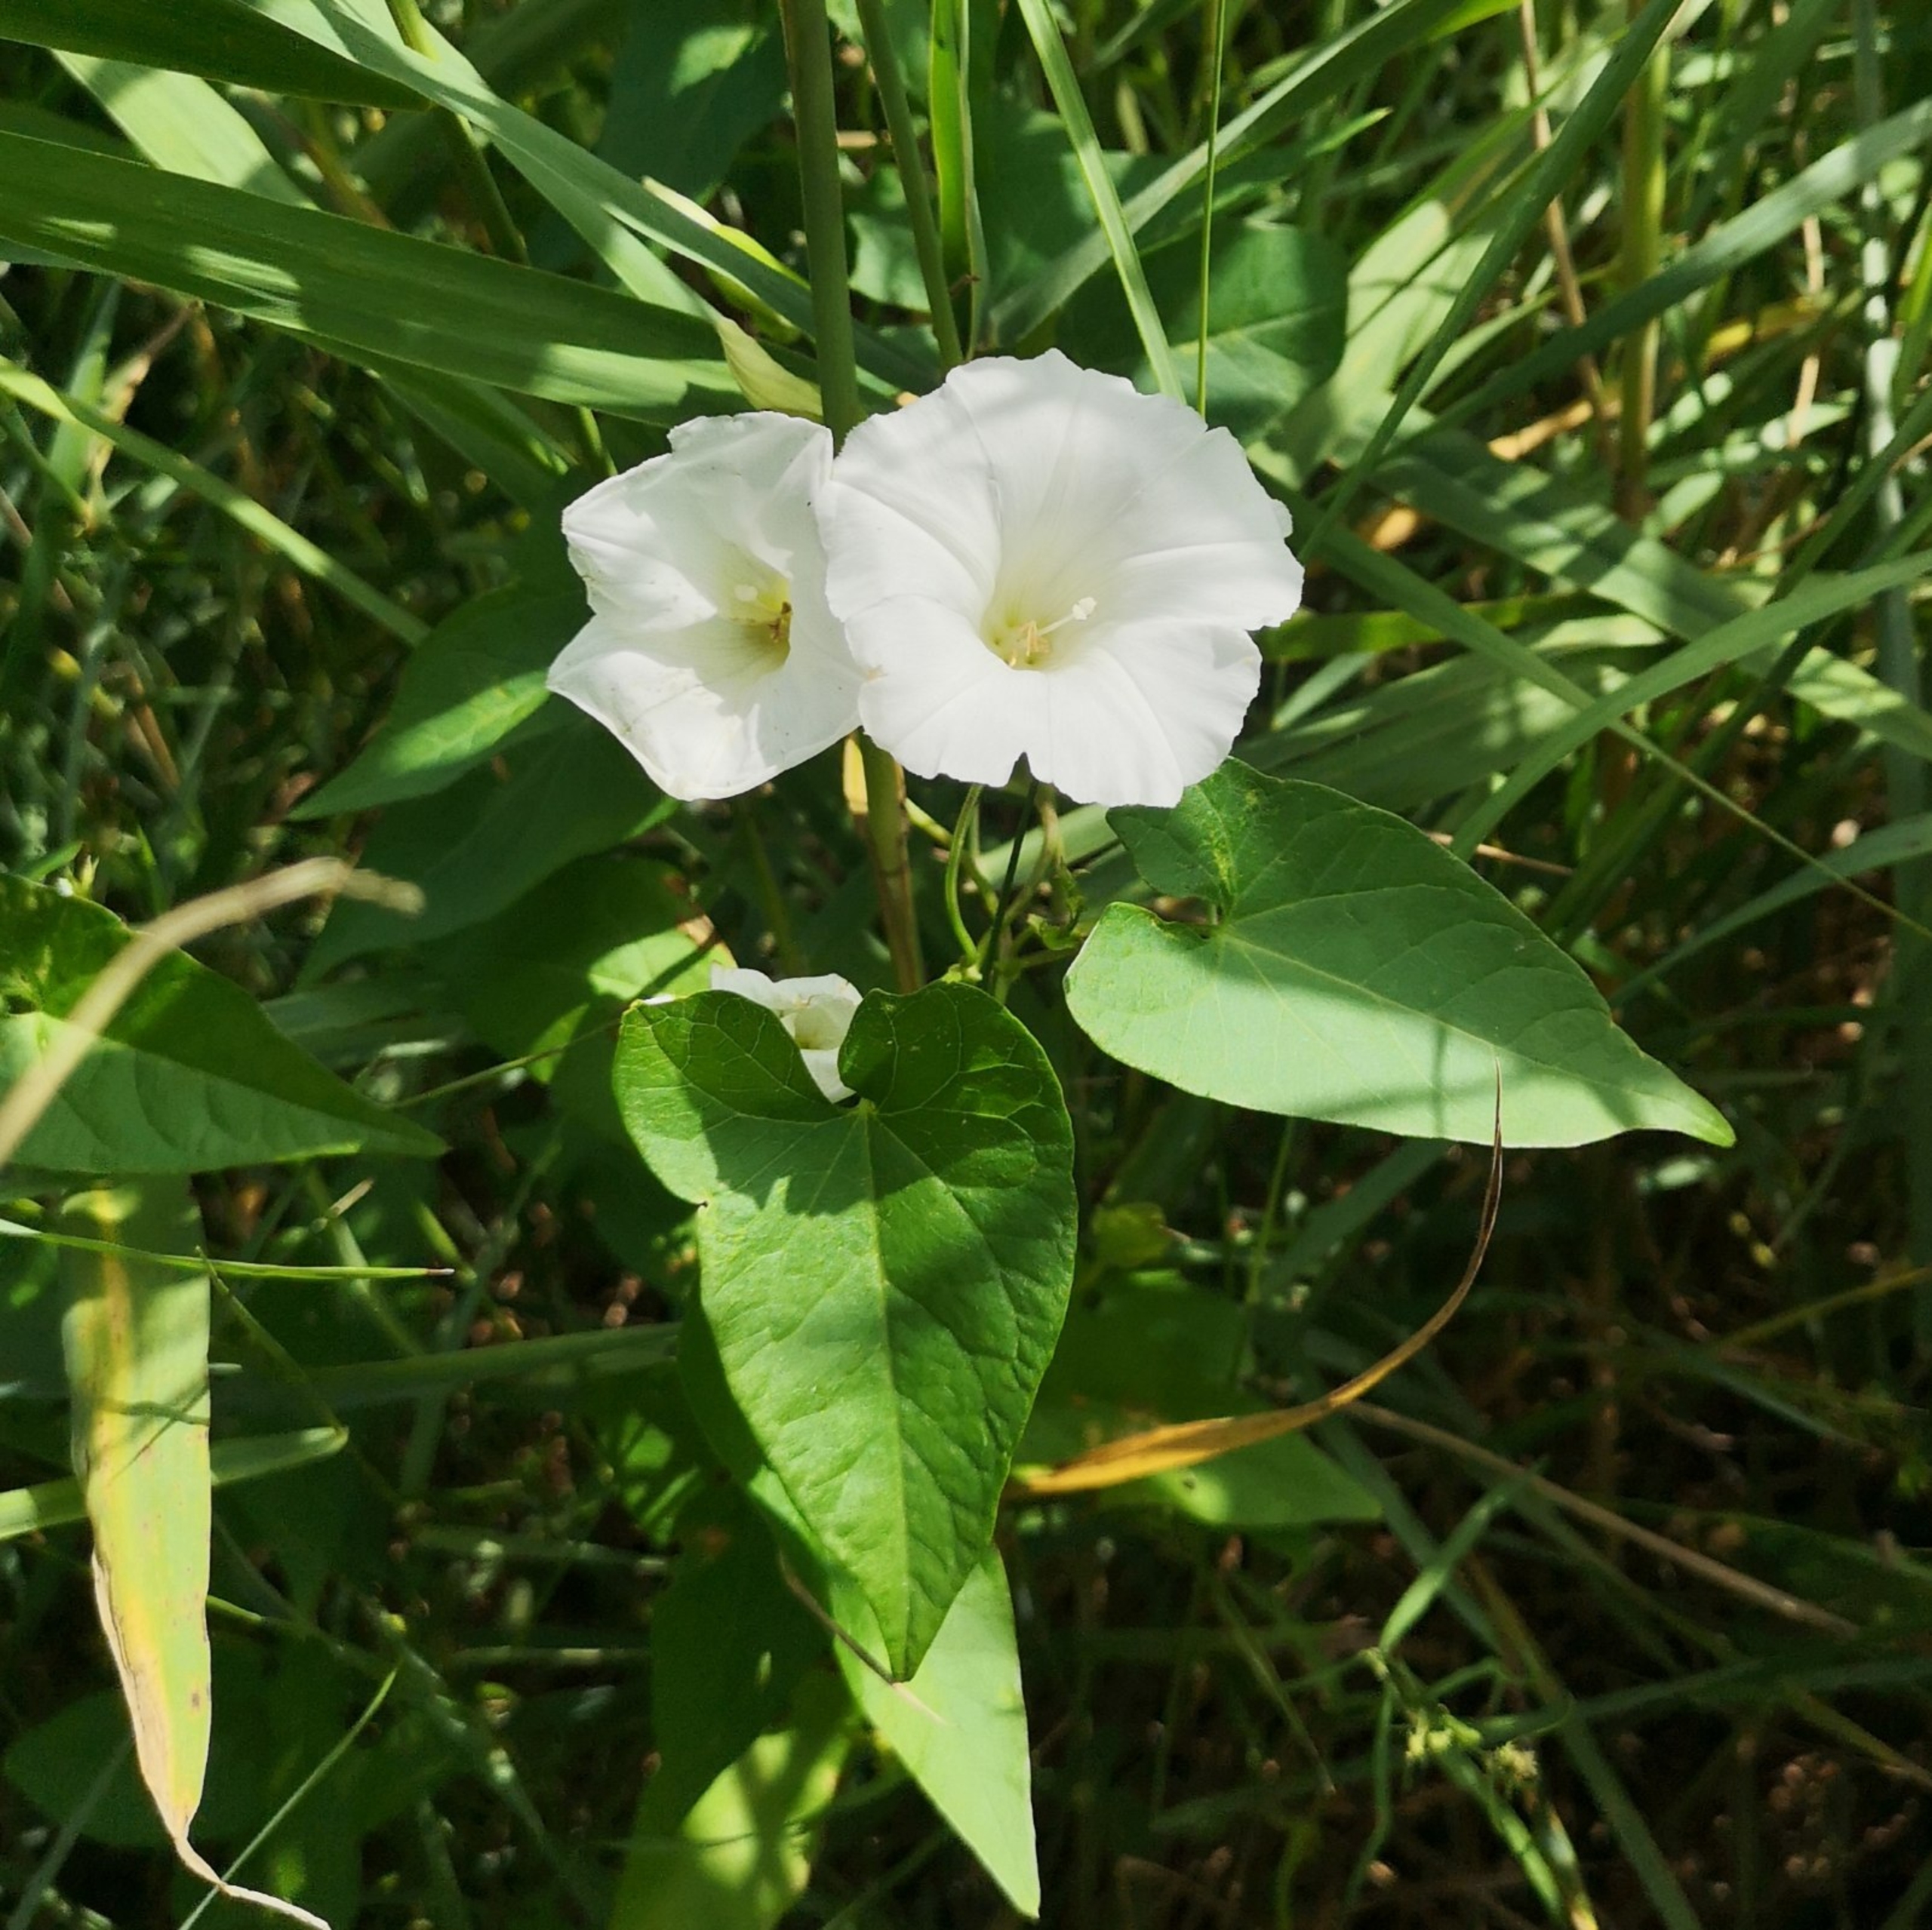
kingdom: Plantae
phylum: Tracheophyta
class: Magnoliopsida
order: Solanales
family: Convolvulaceae
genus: Calystegia
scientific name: Calystegia sepium
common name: Gærde-snerle
